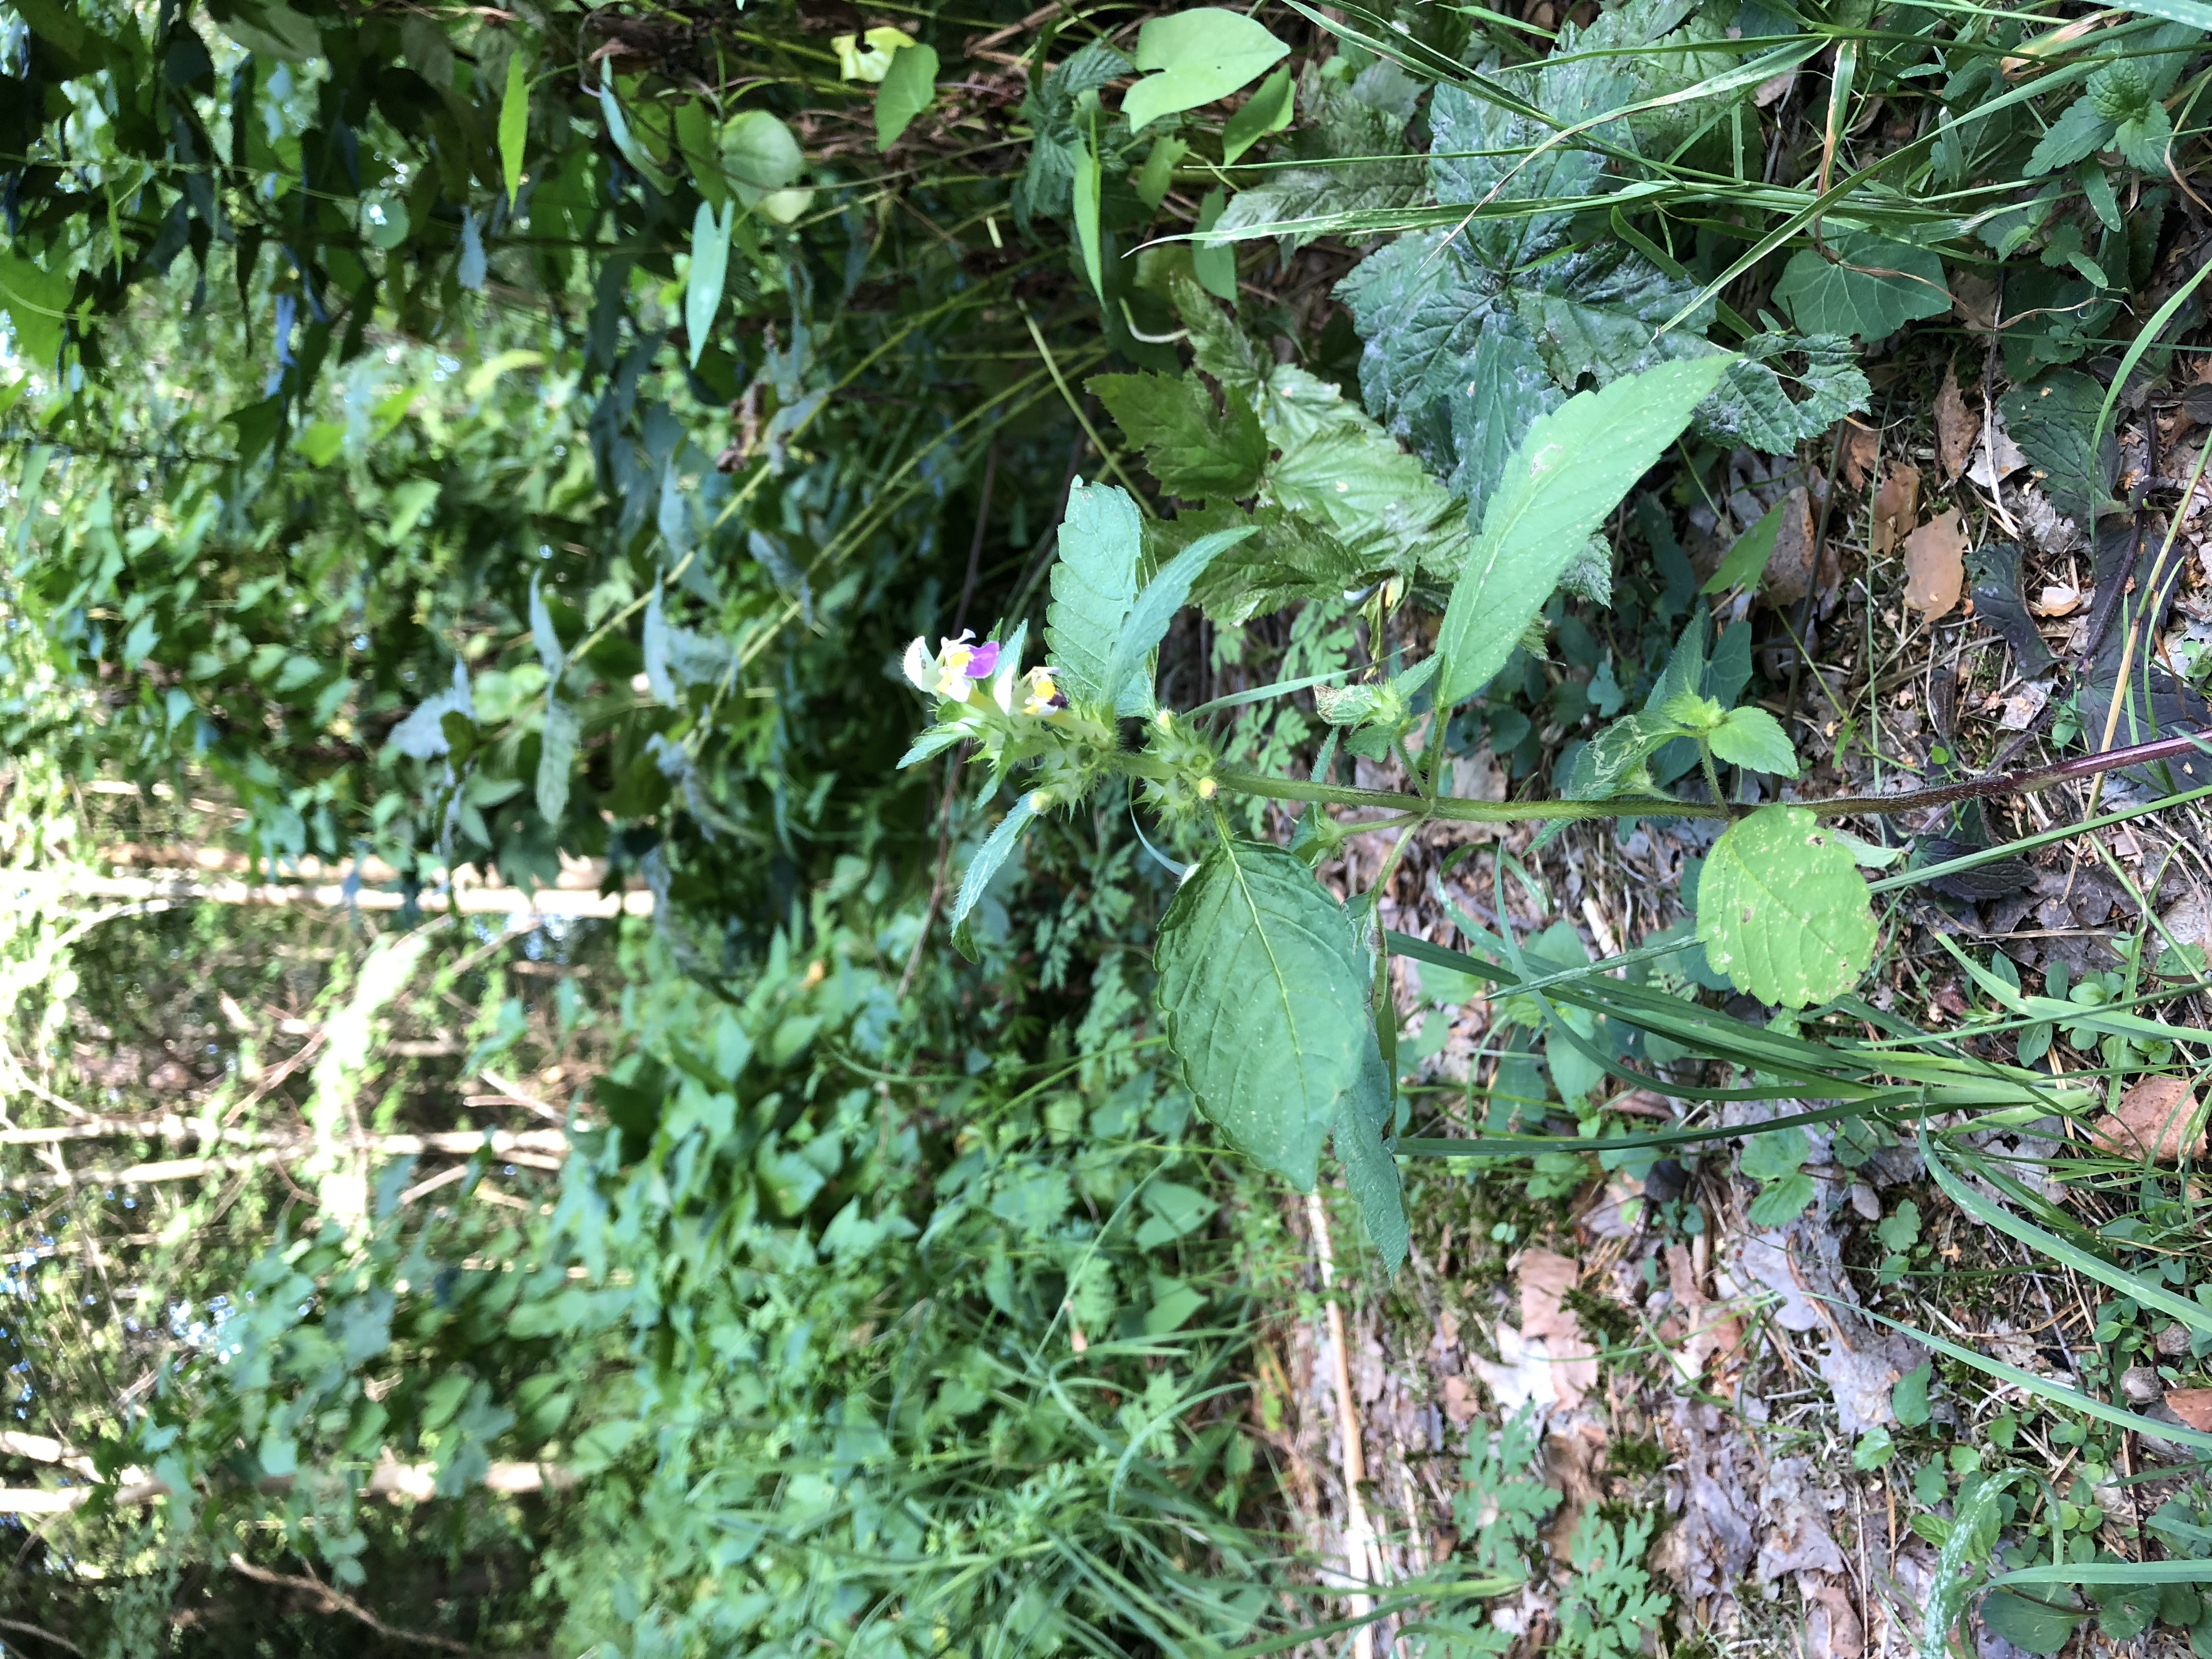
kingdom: Plantae
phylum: Tracheophyta
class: Magnoliopsida
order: Lamiales
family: Lamiaceae
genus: Galeopsis
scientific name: Galeopsis speciosa
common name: Large-flowered hemp-nettle
